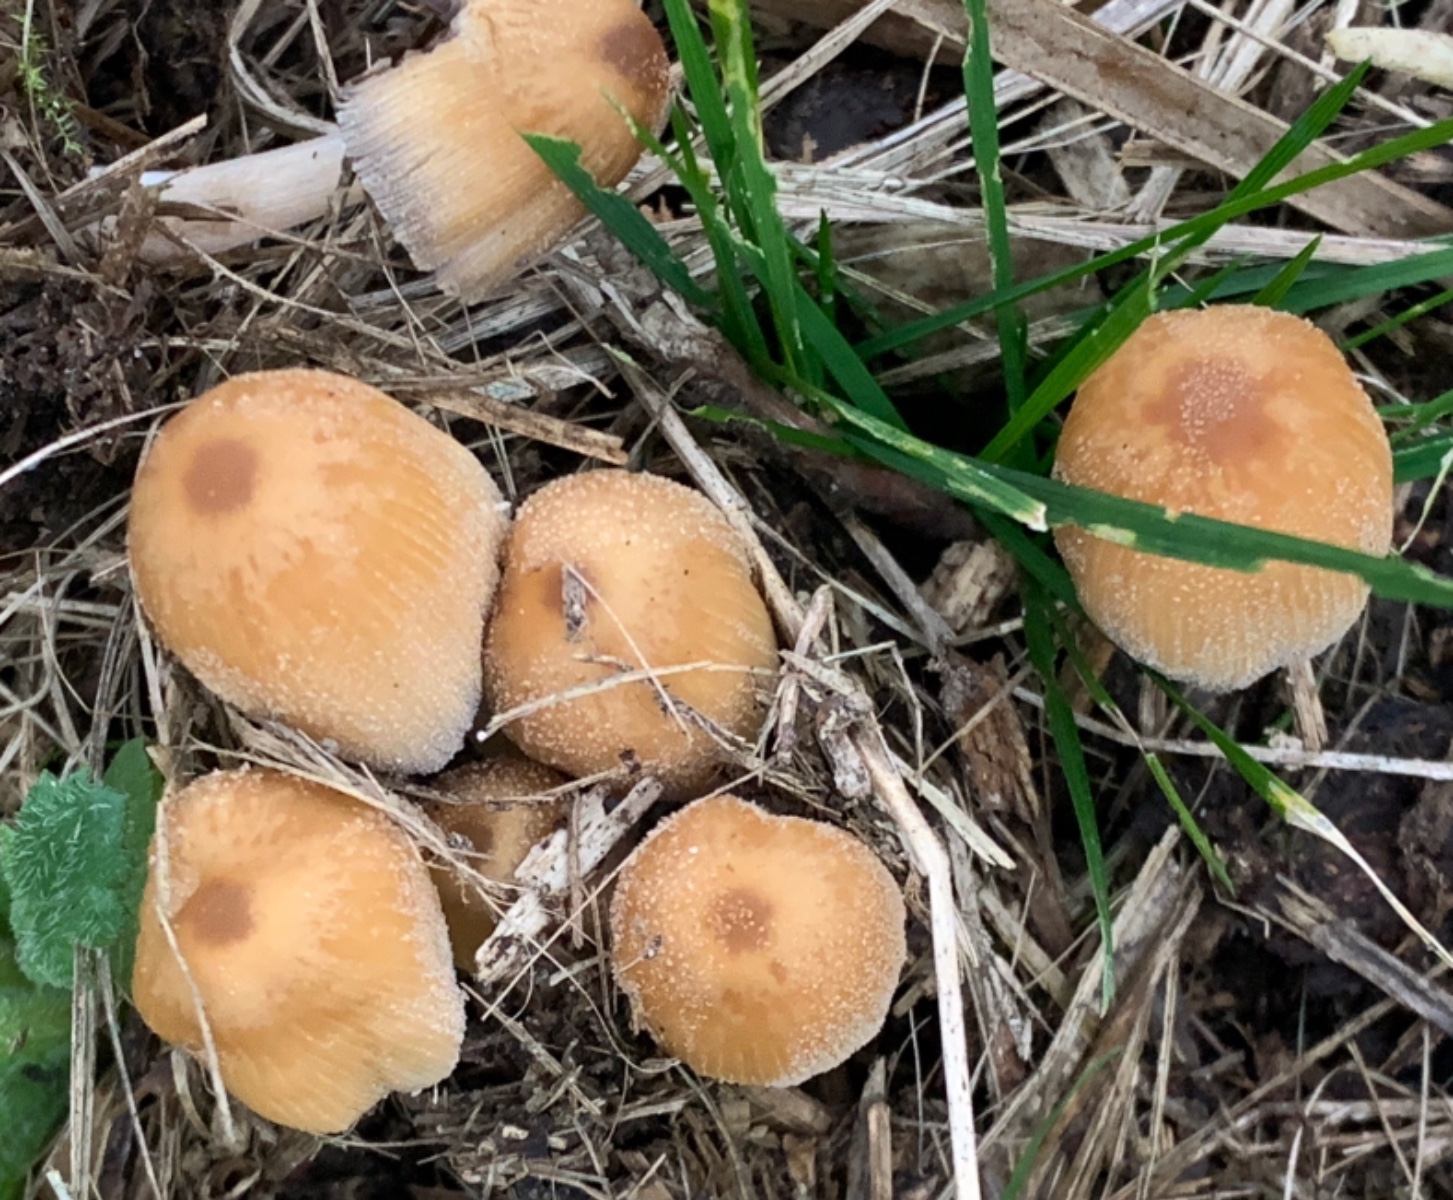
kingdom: Fungi
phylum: Basidiomycota
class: Agaricomycetes
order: Agaricales
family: Psathyrellaceae
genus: Coprinellus
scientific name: Coprinellus micaceus
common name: glimmer-blækhat
